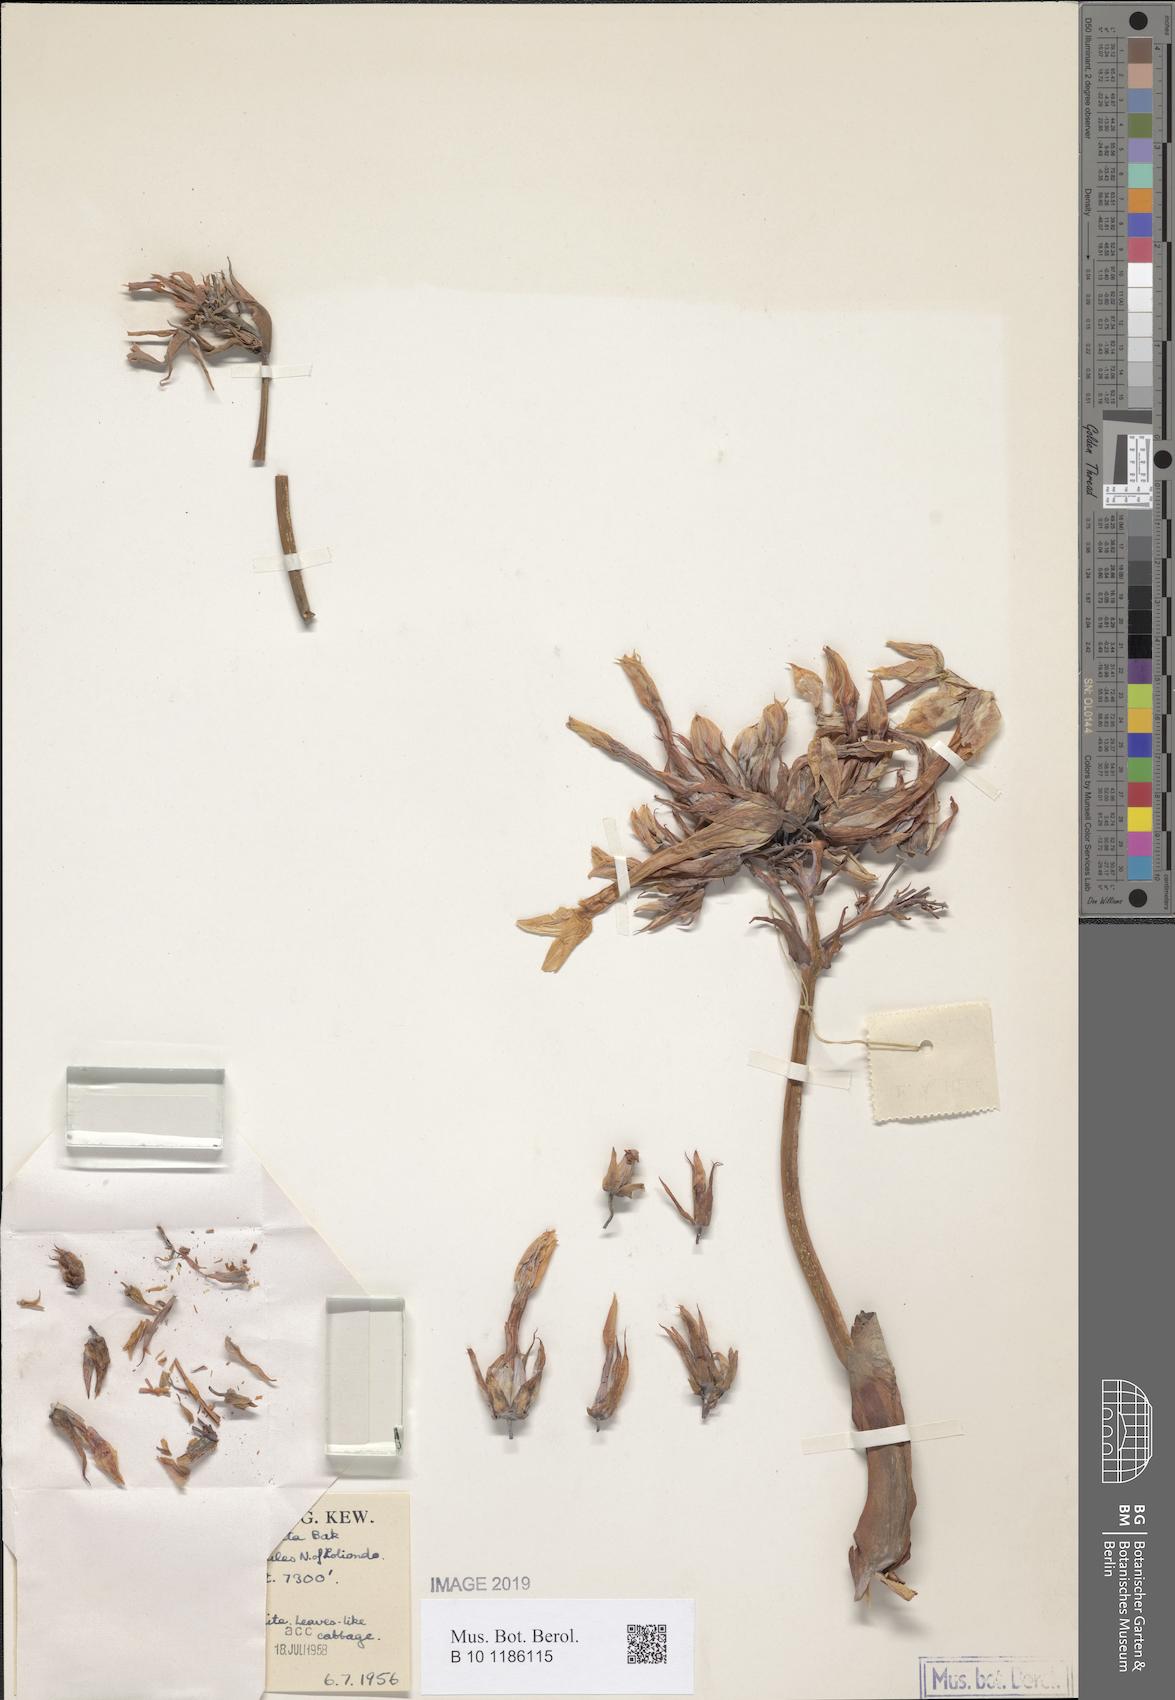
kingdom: Plantae
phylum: Tracheophyta
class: Magnoliopsida
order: Saxifragales
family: Crassulaceae
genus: Kalanchoe
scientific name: Kalanchoe marmorata
